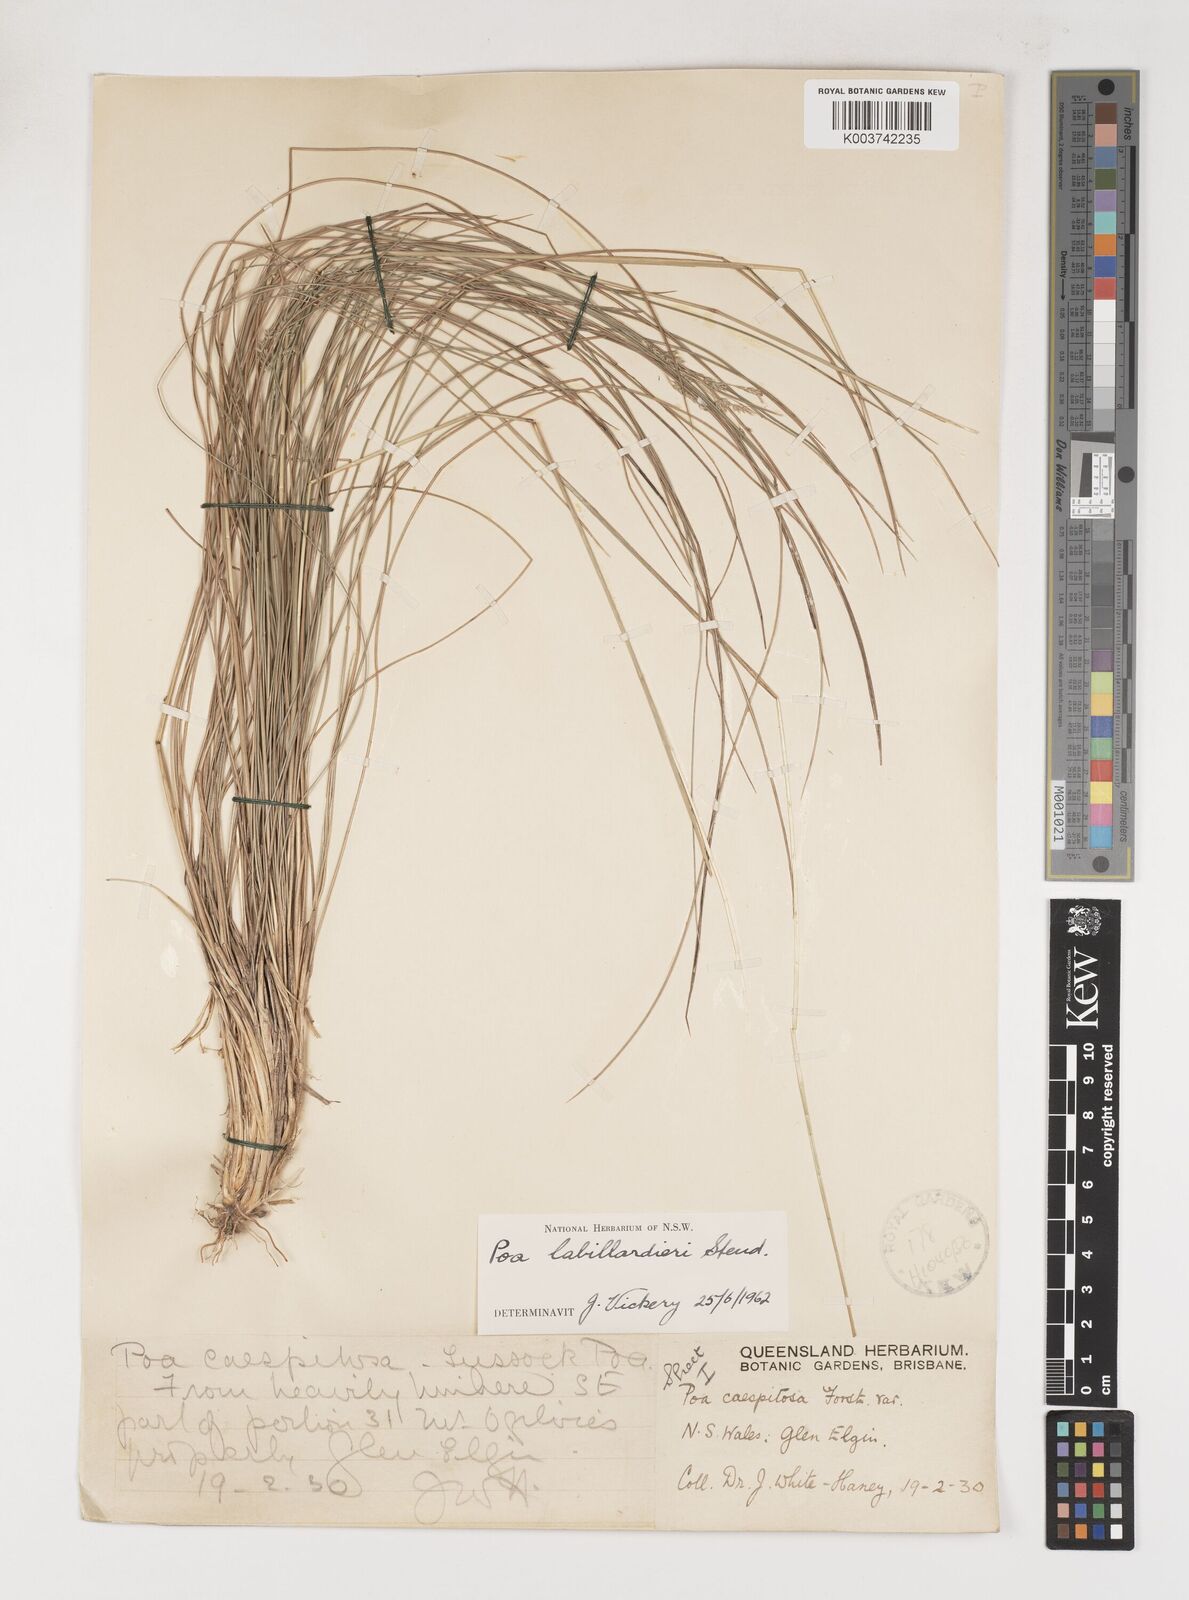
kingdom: Plantae
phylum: Tracheophyta
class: Liliopsida
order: Poales
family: Poaceae
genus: Poa
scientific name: Poa labillardierei
